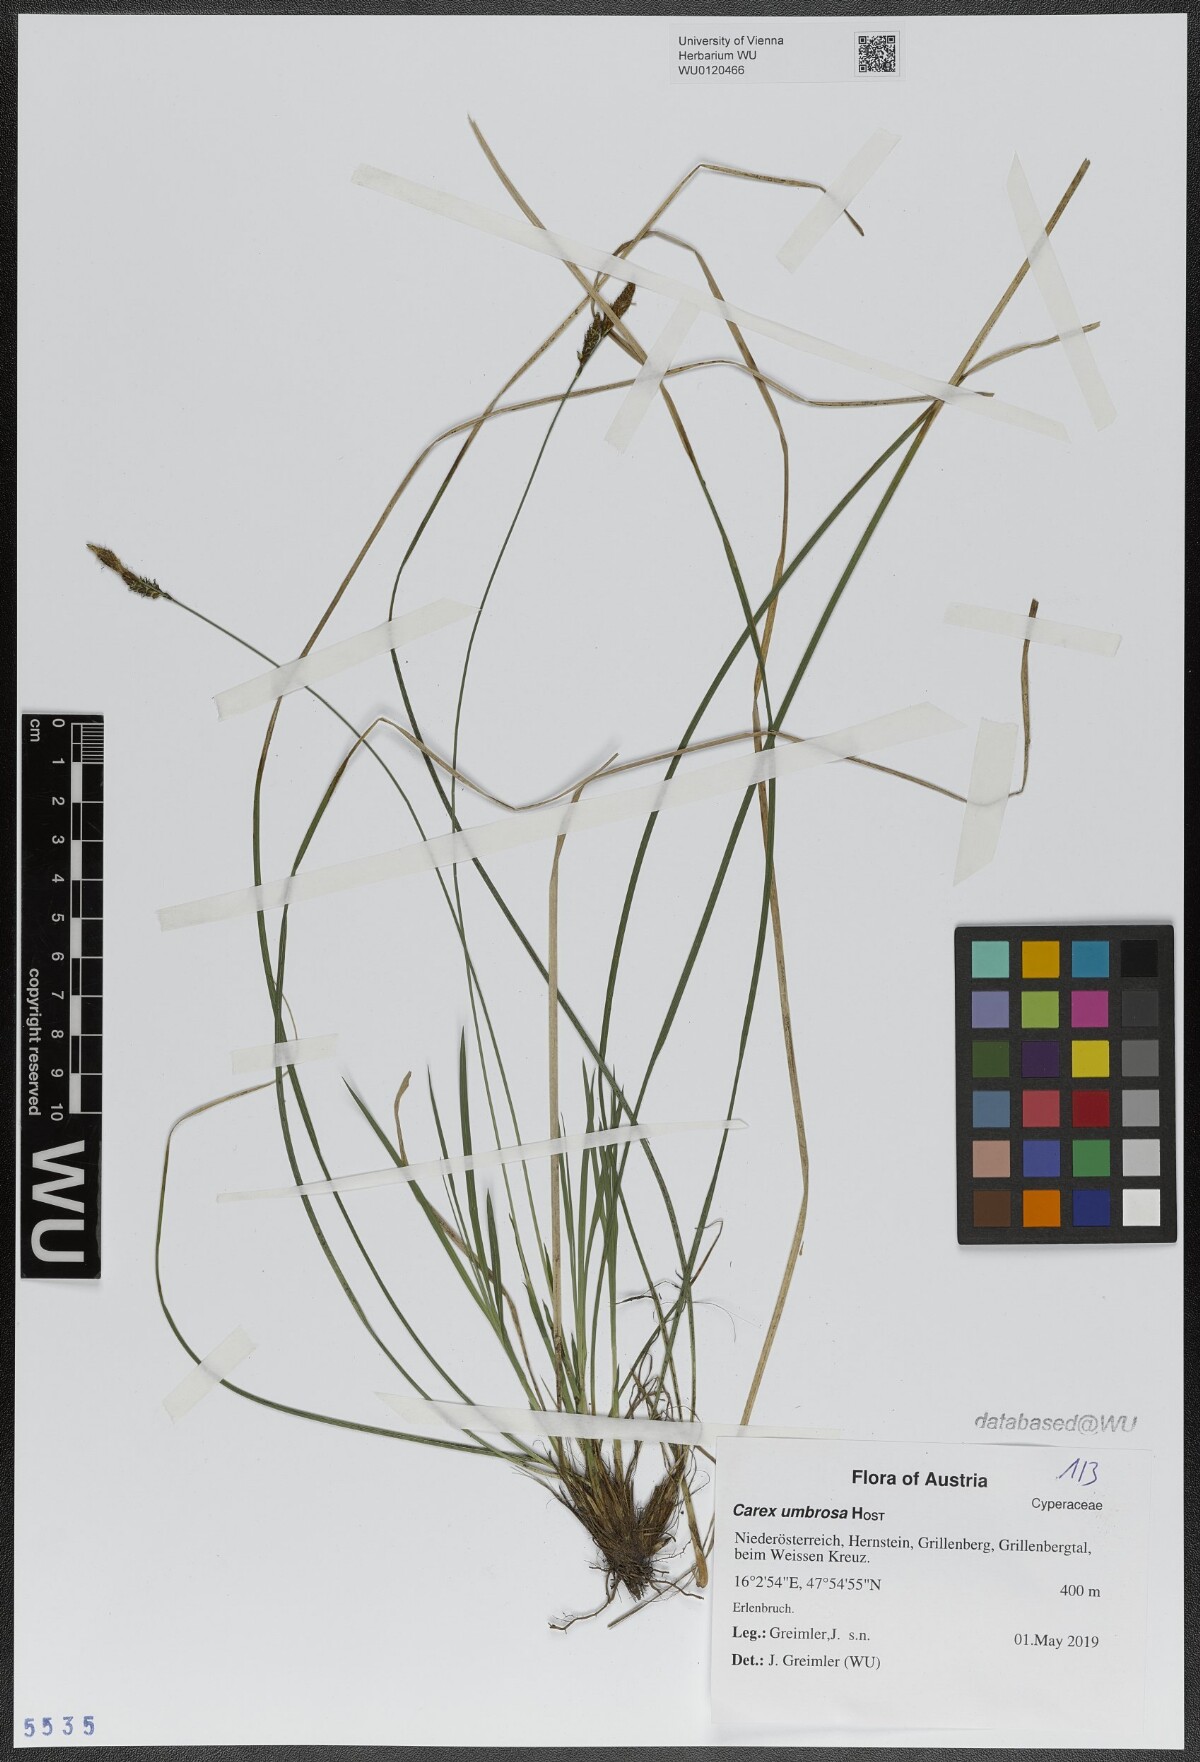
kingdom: Plantae
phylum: Tracheophyta
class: Liliopsida
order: Poales
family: Cyperaceae
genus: Carex
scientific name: Carex umbrosa
